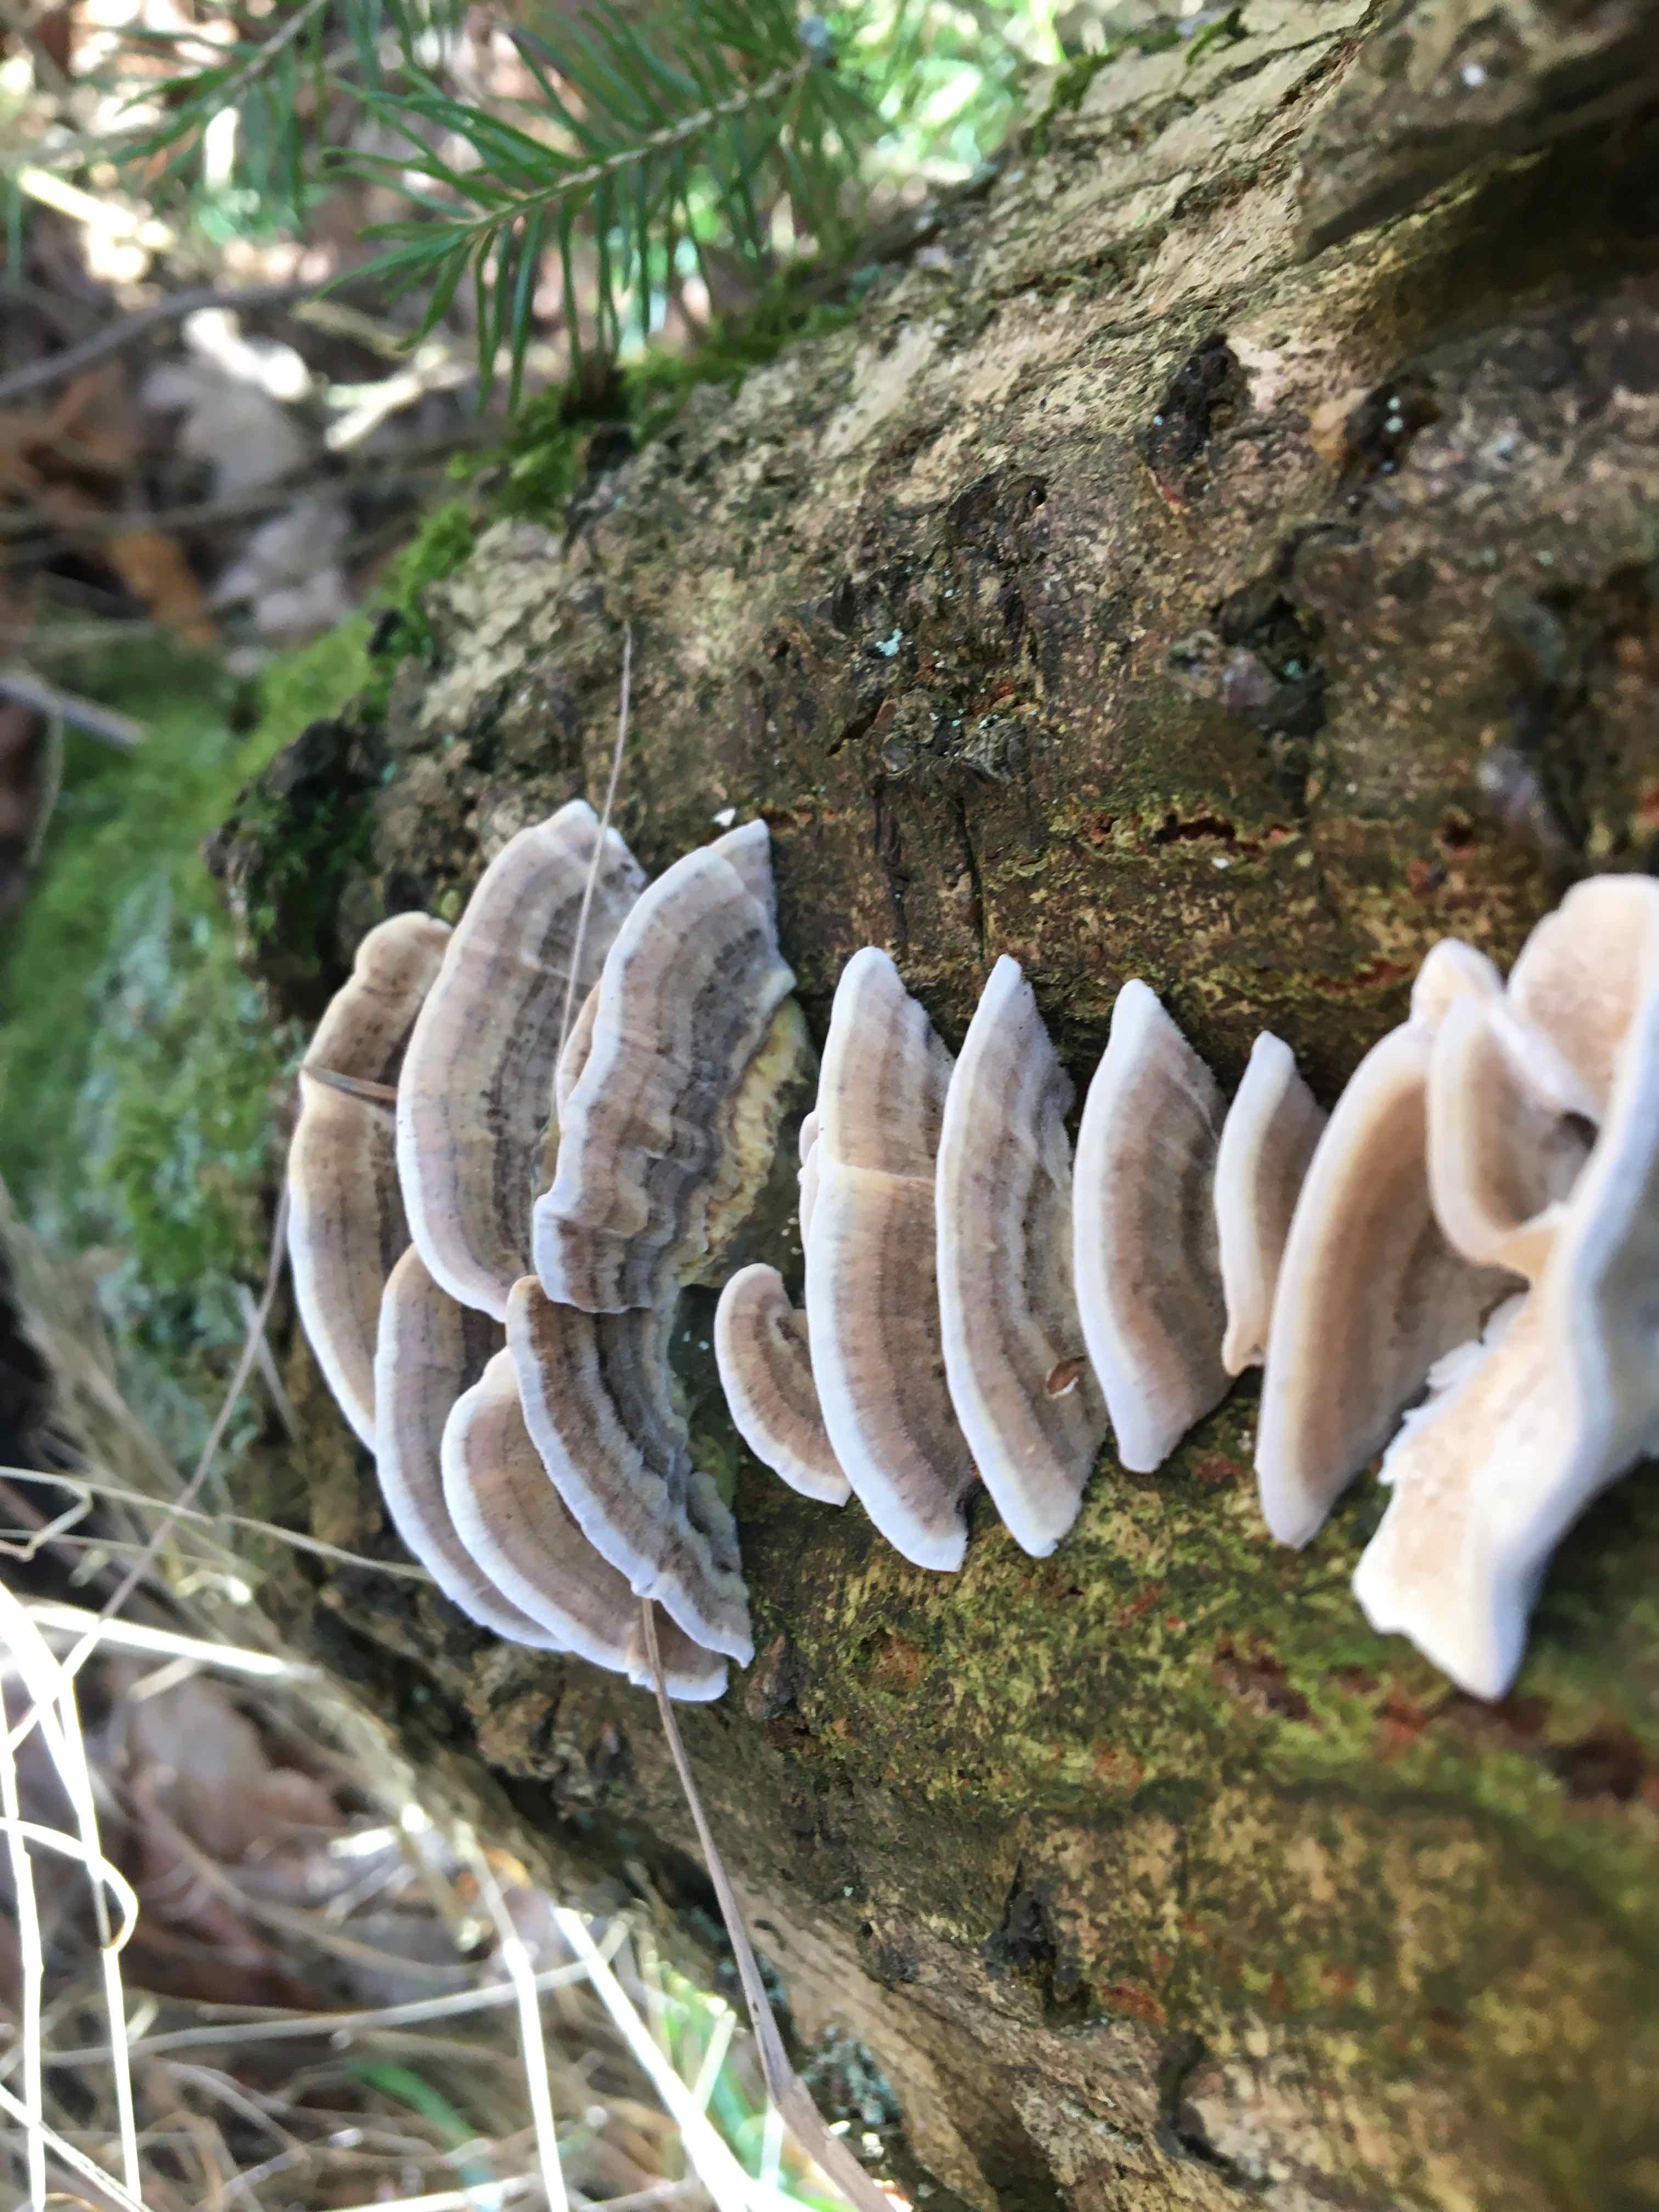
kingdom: Fungi
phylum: Basidiomycota
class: Agaricomycetes
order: Polyporales
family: Polyporaceae
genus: Trametes
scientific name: Trametes versicolor
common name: broget læderporesvamp
